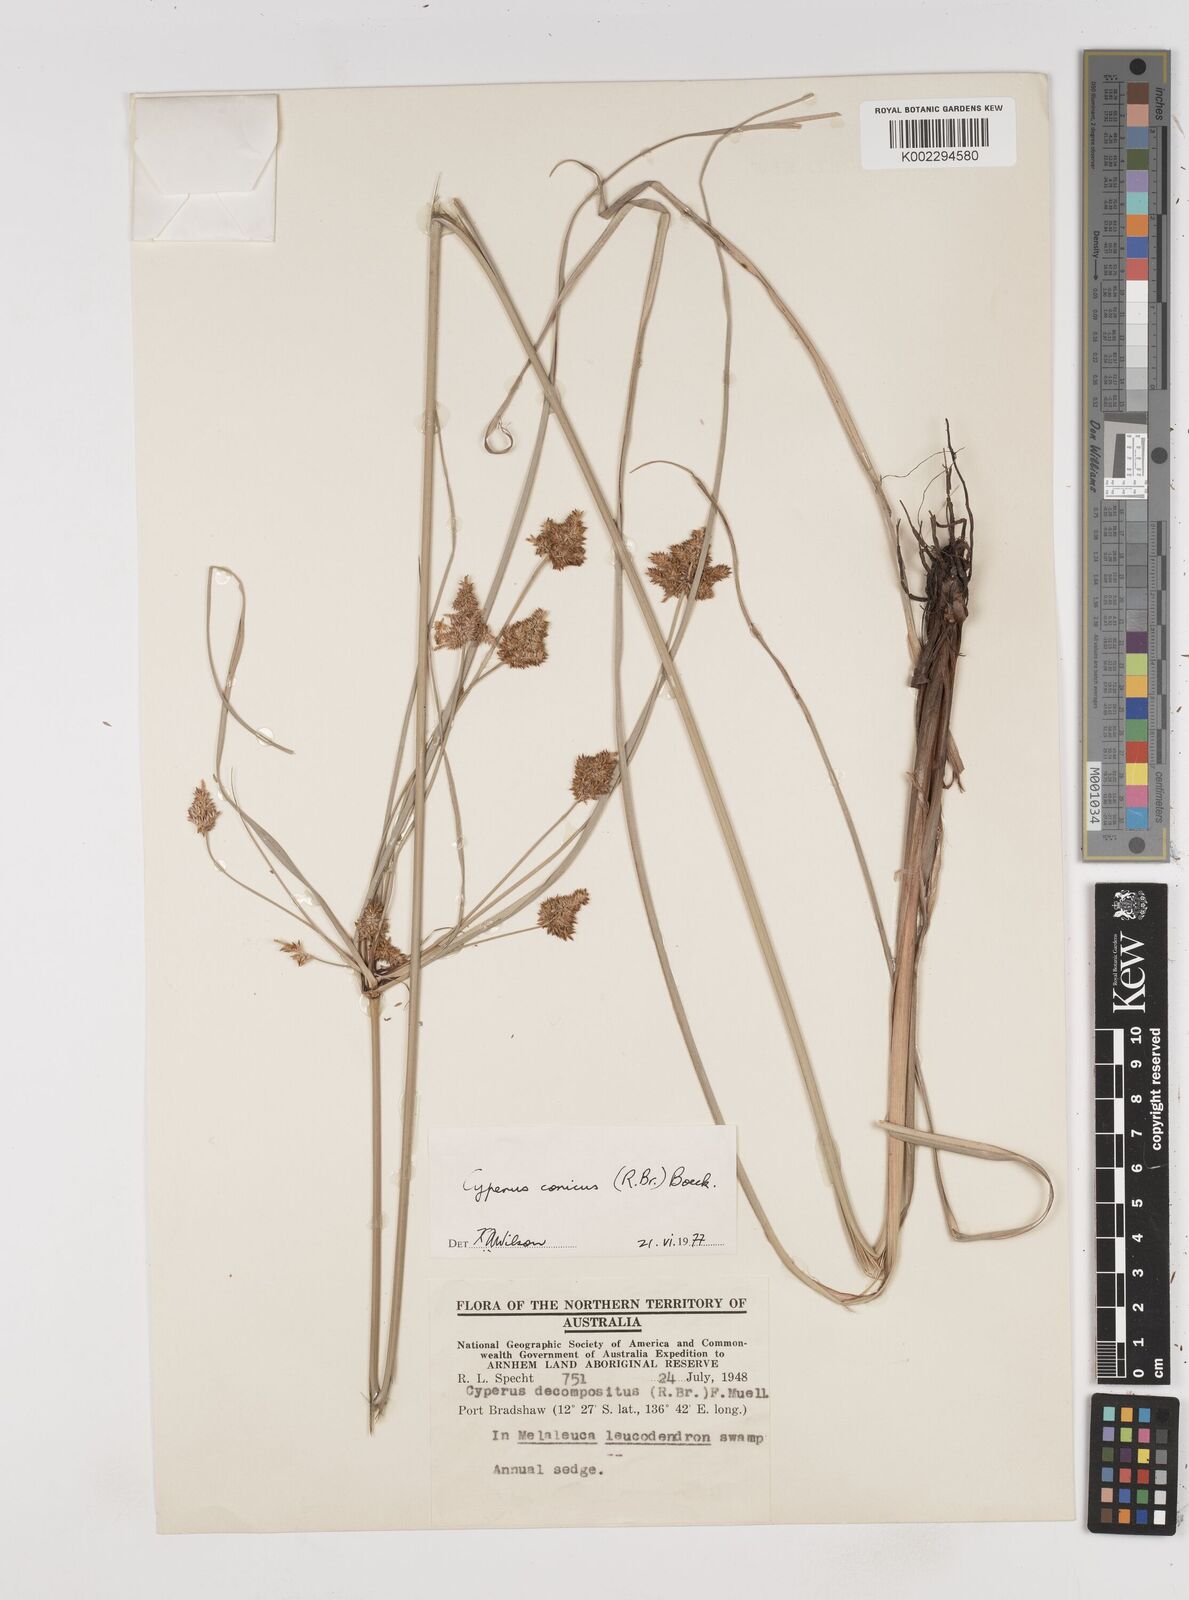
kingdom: Plantae
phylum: Tracheophyta
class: Liliopsida
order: Poales
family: Cyperaceae
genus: Cyperus
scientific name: Cyperus conicus
